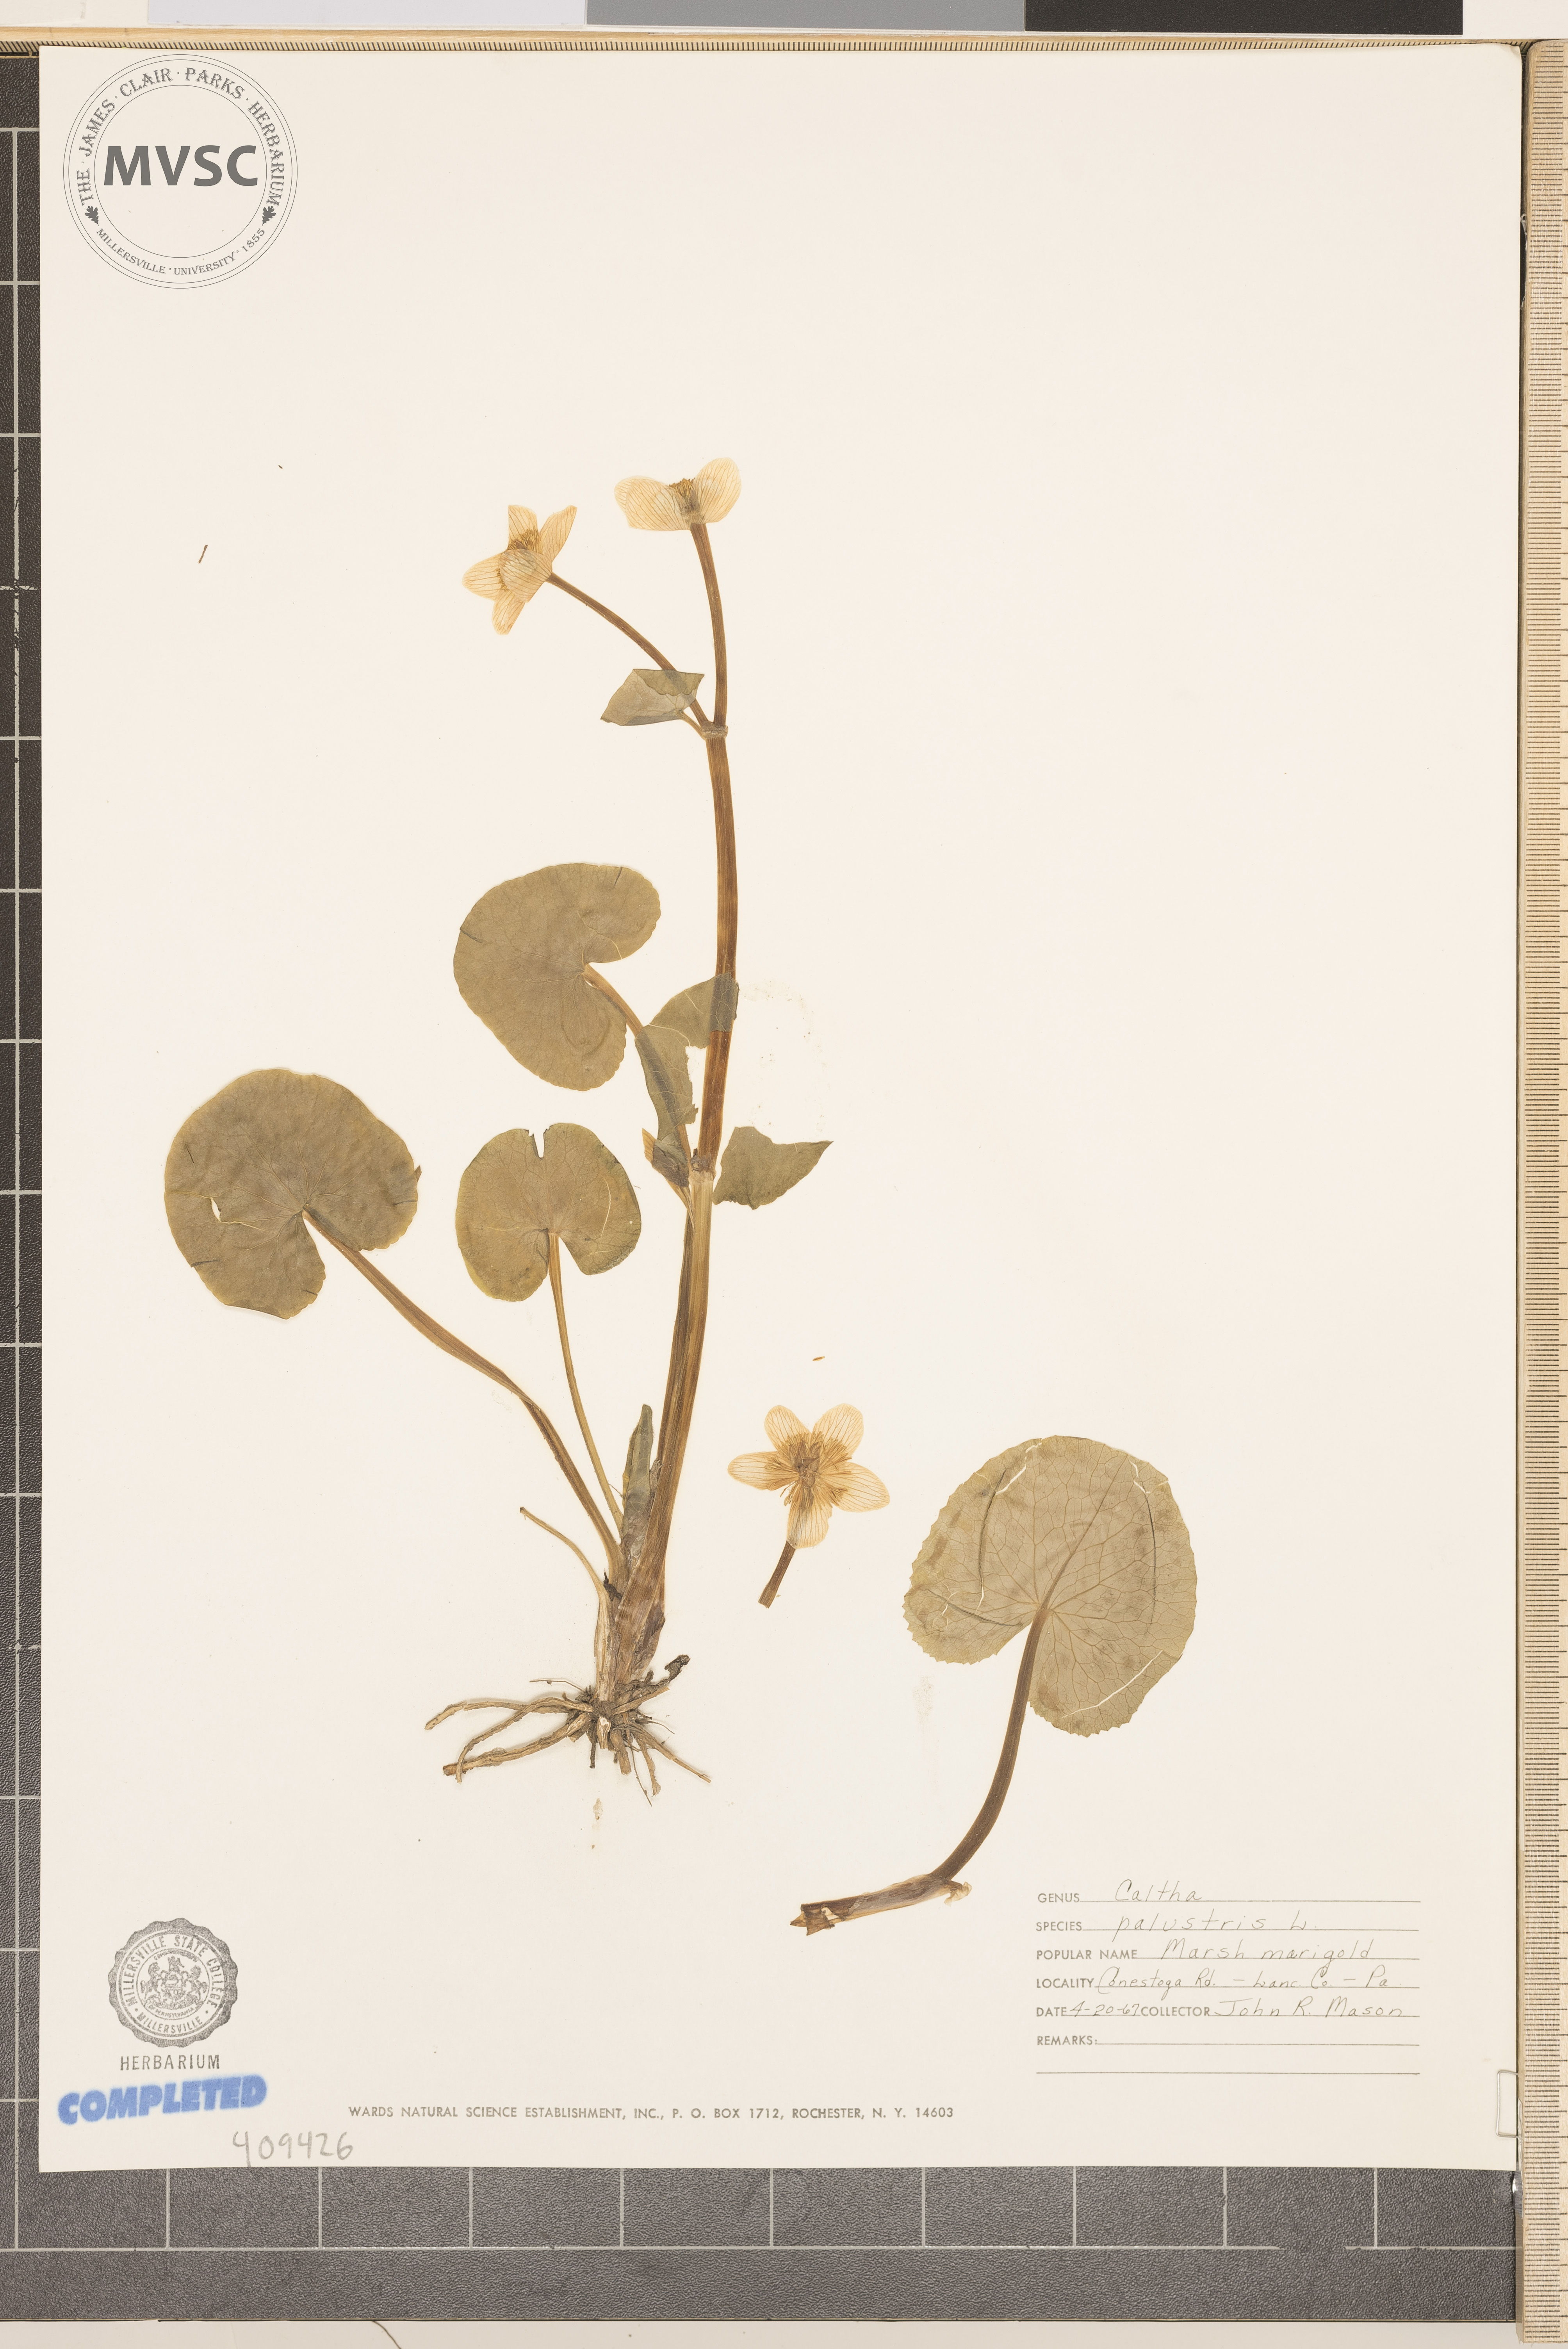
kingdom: Plantae
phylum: Tracheophyta
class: Magnoliopsida
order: Ranunculales
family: Ranunculaceae
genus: Caltha
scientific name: Caltha palustris
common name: Marsh marigold
